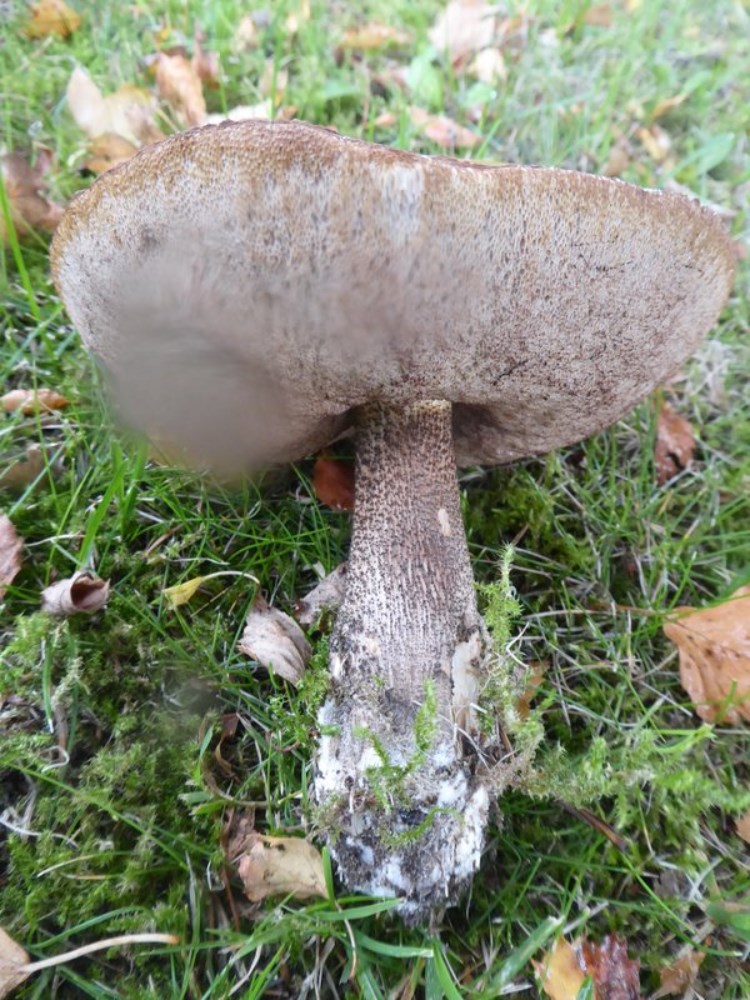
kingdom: Fungi
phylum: Basidiomycota
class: Agaricomycetes
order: Boletales
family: Boletaceae
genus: Leccinum
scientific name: Leccinum
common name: skælrørhat
